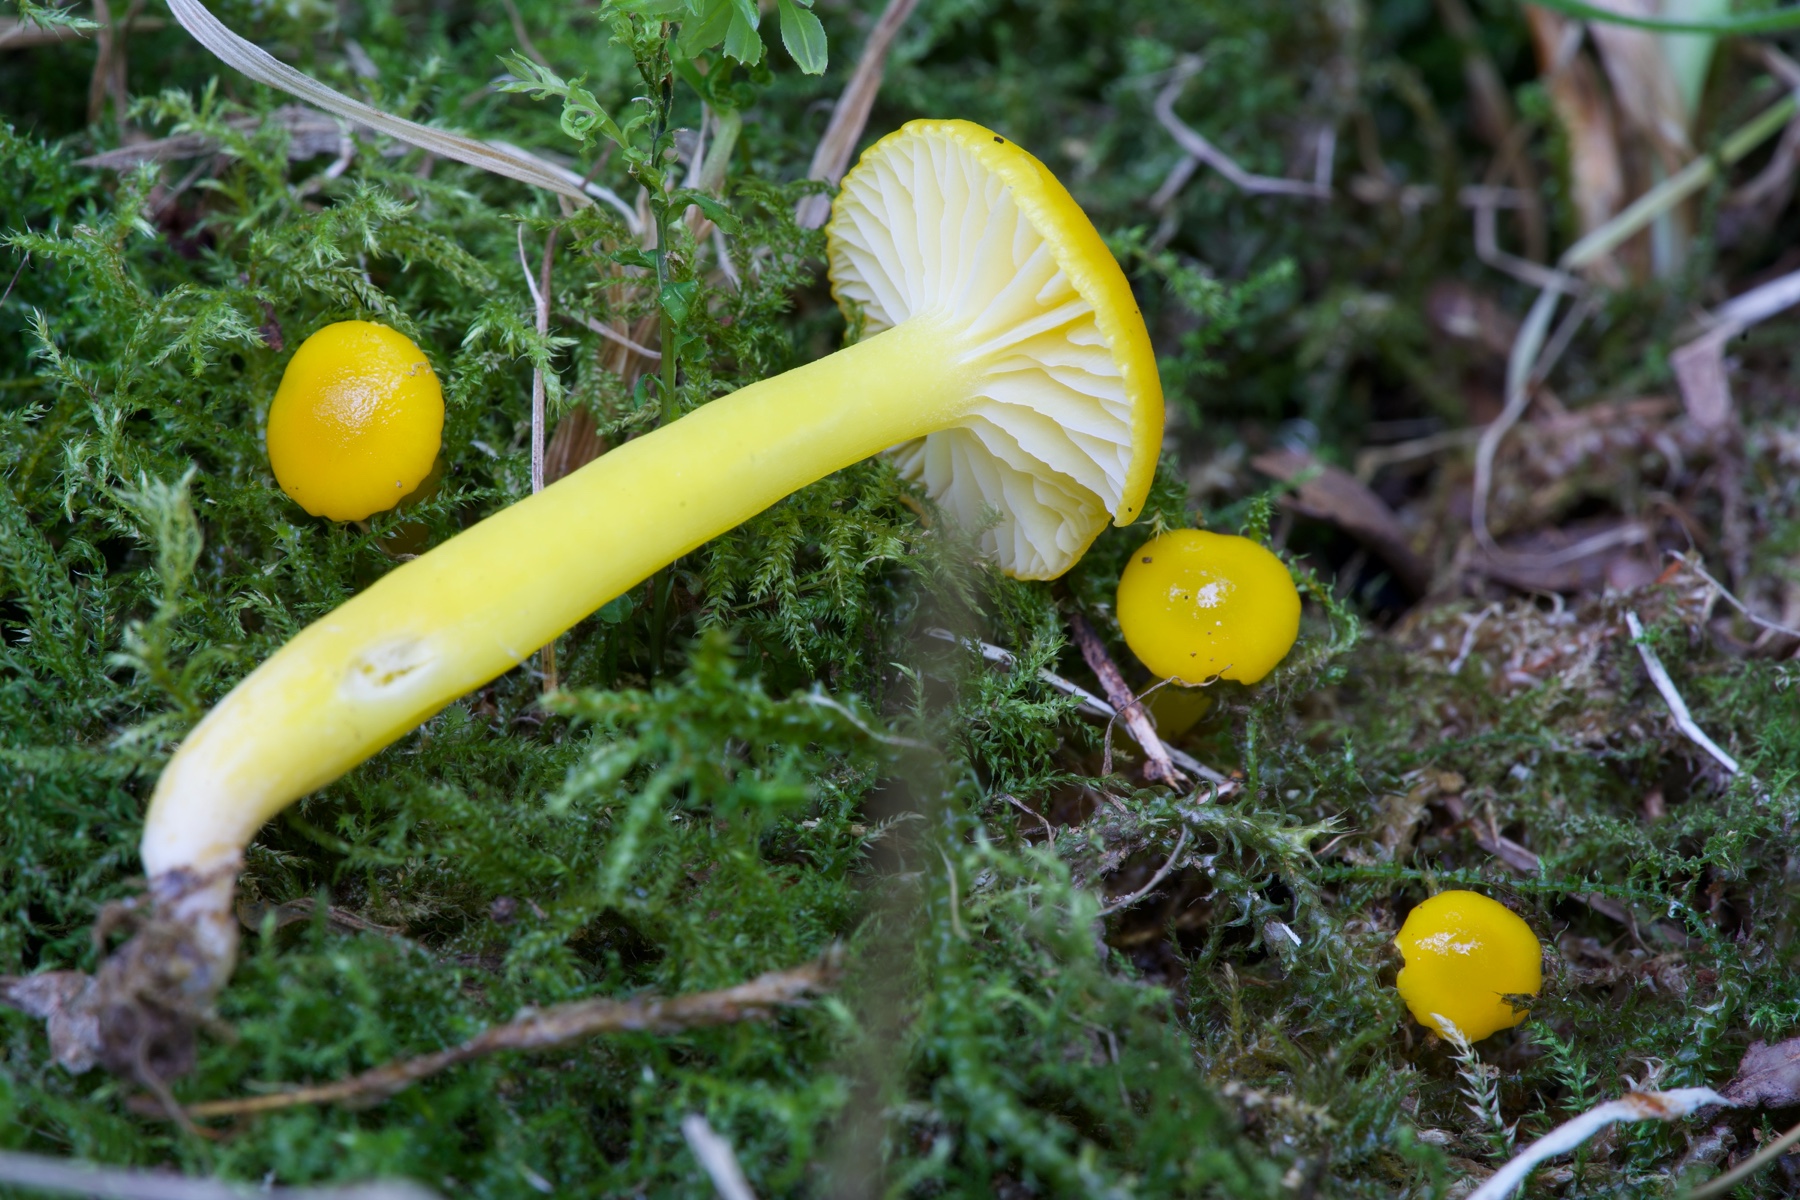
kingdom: Fungi
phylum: Basidiomycota
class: Agaricomycetes
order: Agaricales
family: Hygrophoraceae
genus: Hygrocybe
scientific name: Hygrocybe ceracea
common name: voksgul vokshat
